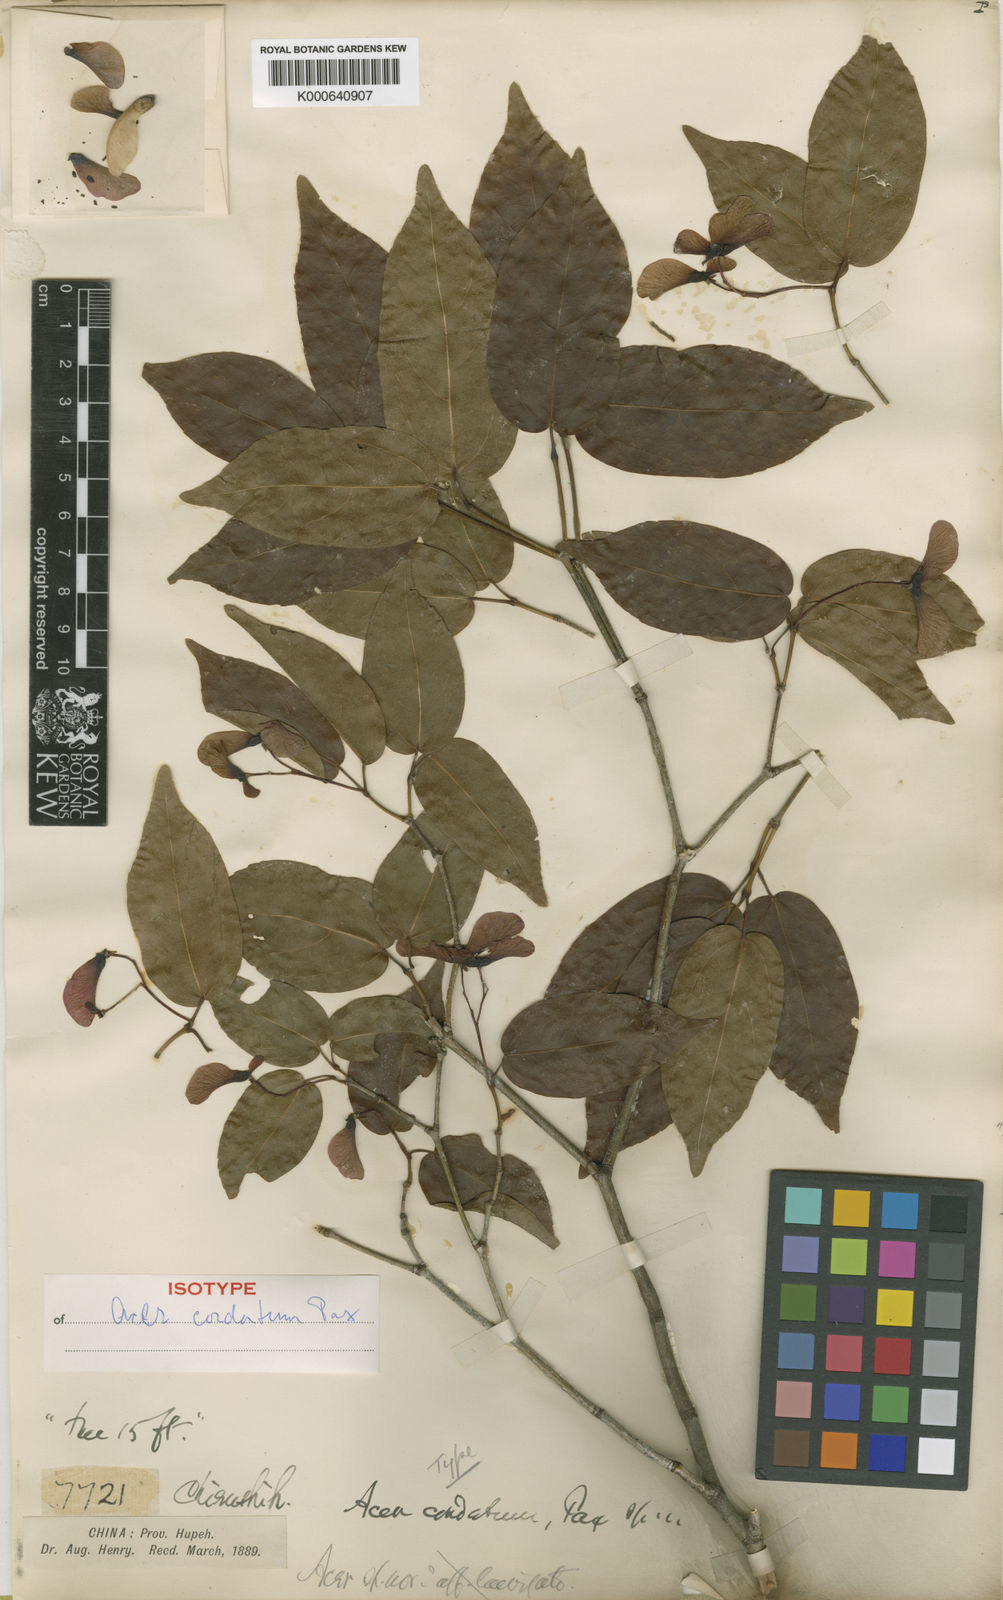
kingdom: Plantae
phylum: Tracheophyta
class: Magnoliopsida
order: Sapindales
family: Sapindaceae
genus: Acer
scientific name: Acer cordatum
